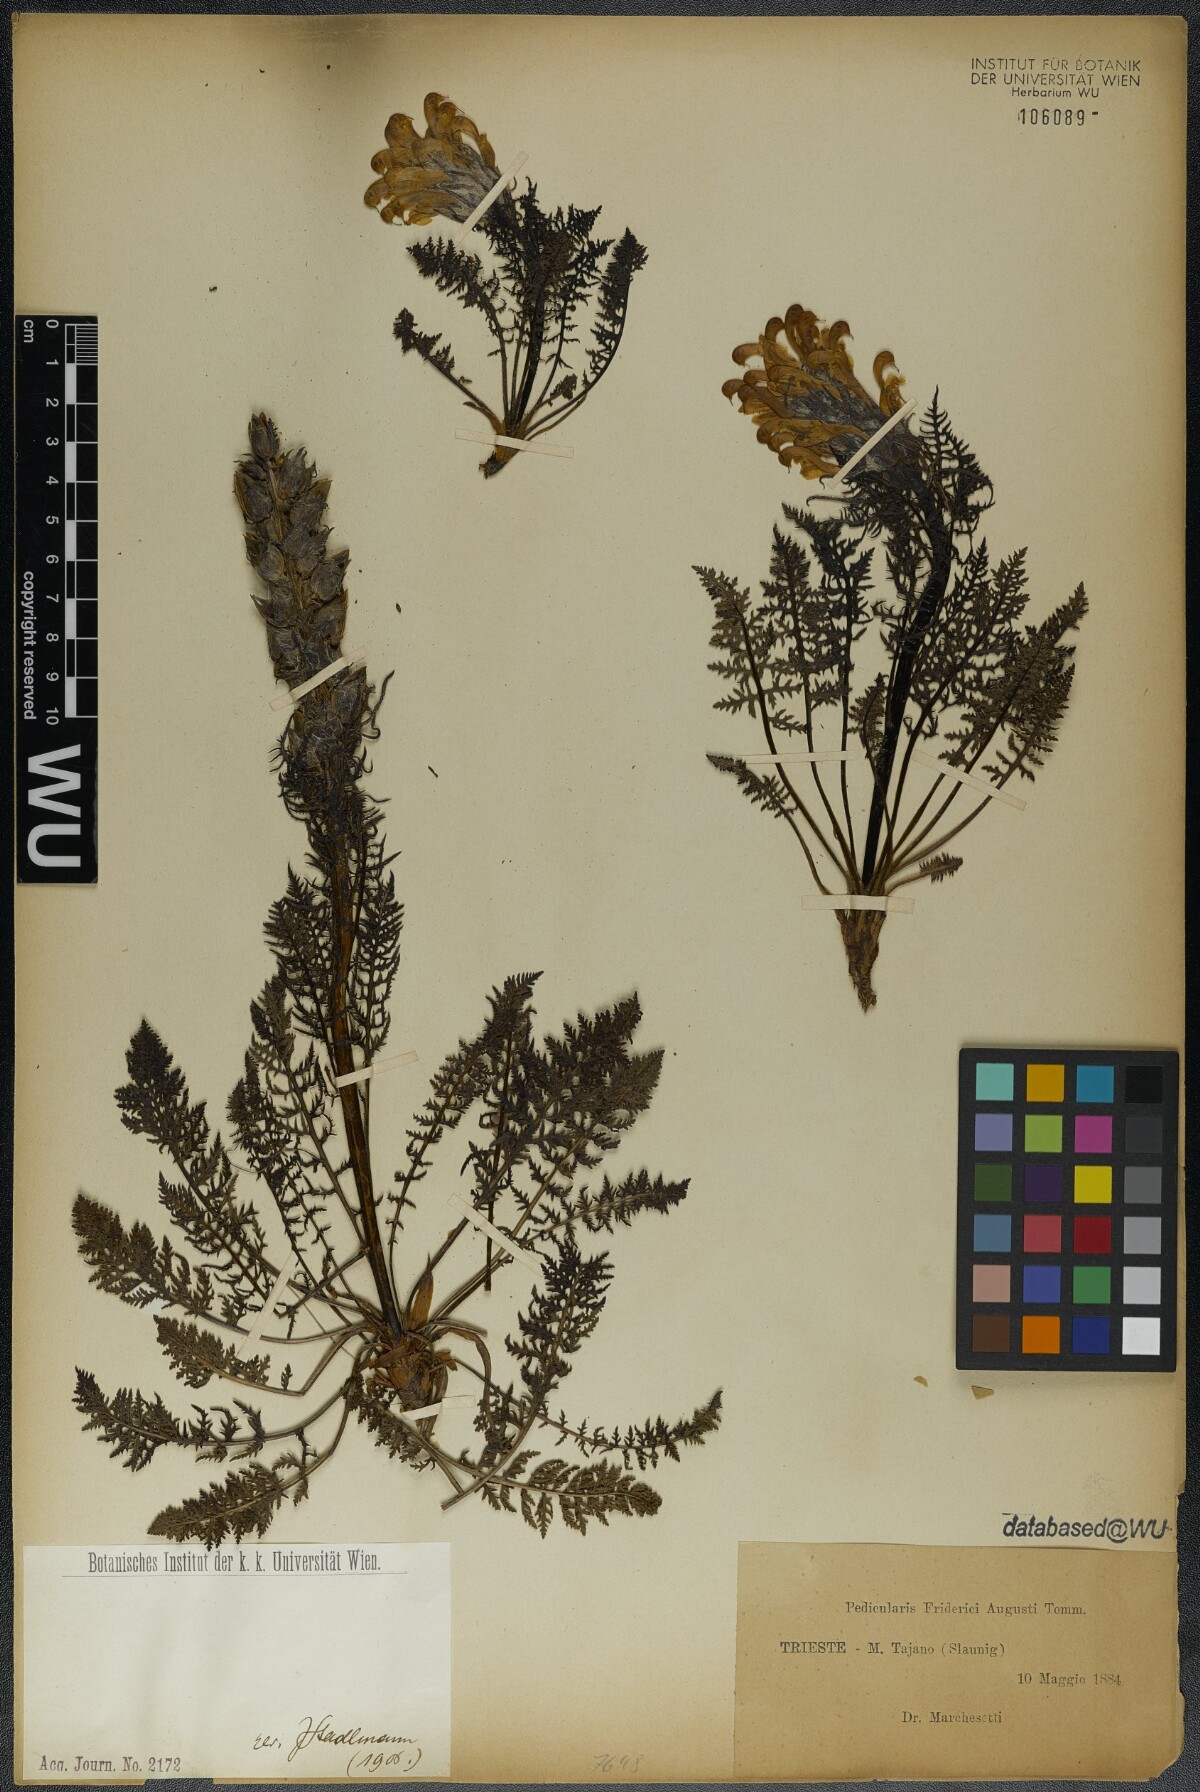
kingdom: Plantae
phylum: Tracheophyta
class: Magnoliopsida
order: Lamiales
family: Orobanchaceae
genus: Pedicularis
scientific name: Pedicularis friderici-augusti
